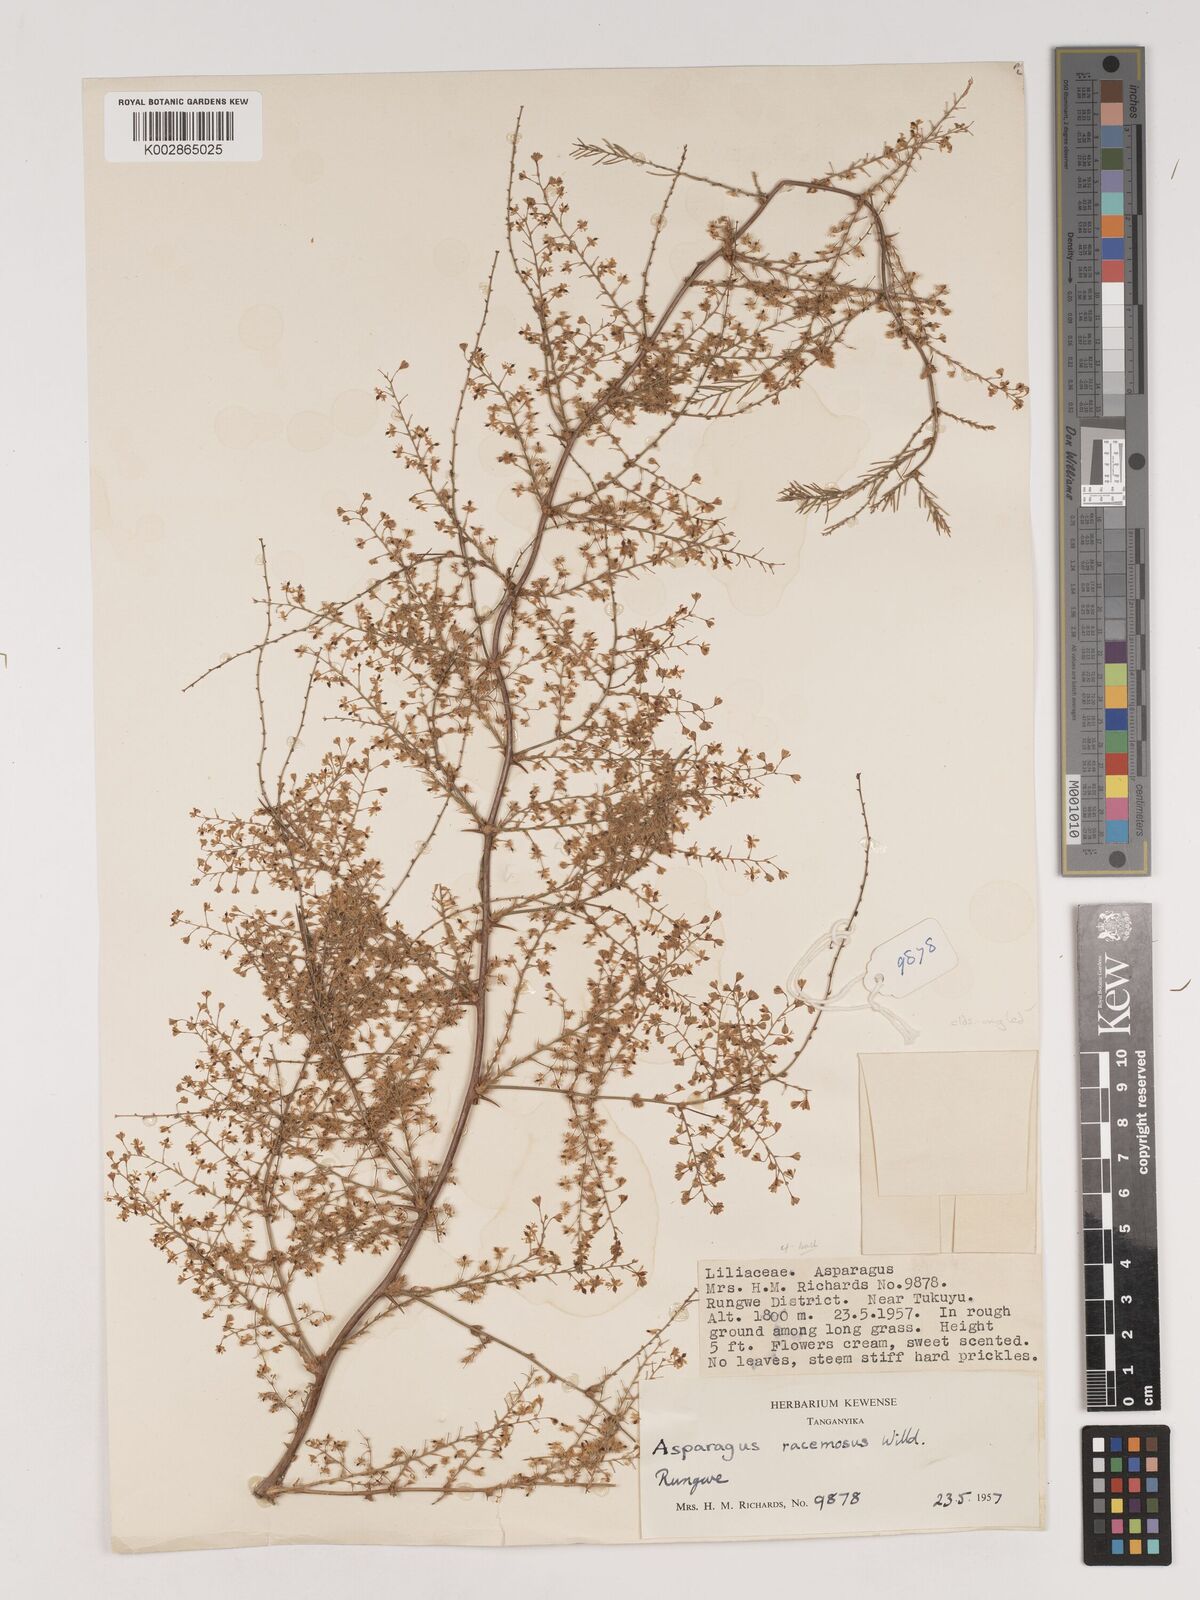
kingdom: Plantae
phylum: Tracheophyta
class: Liliopsida
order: Asparagales
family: Asparagaceae
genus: Asparagus
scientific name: Asparagus buchananii
